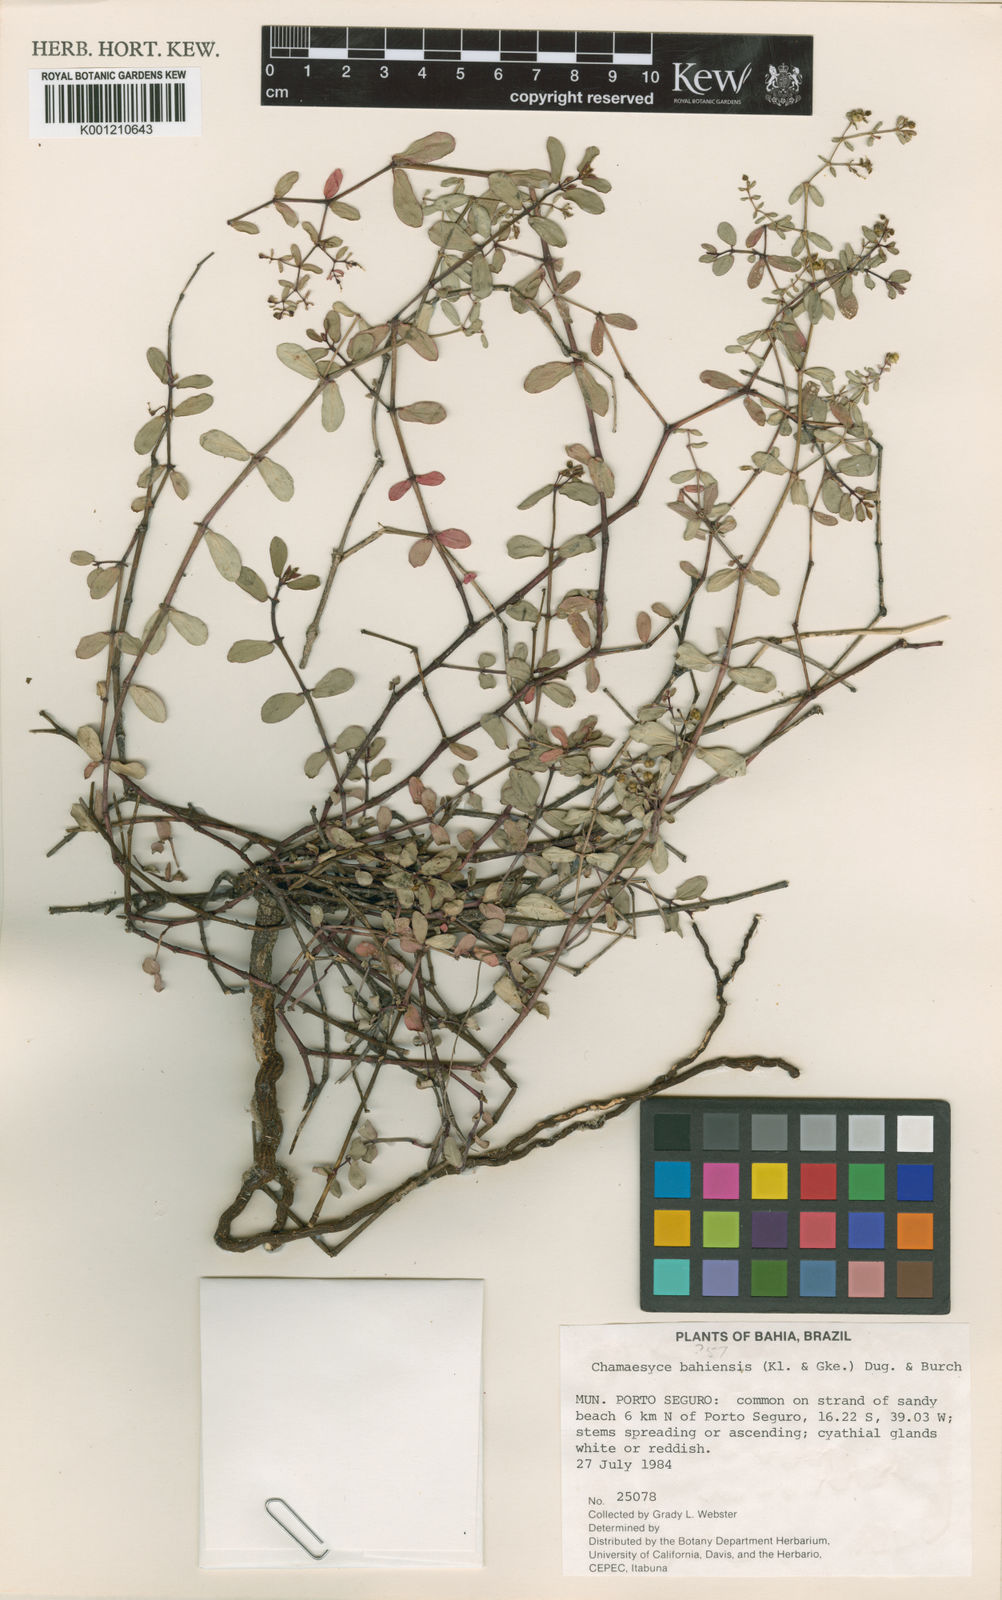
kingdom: Plantae
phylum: Tracheophyta
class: Magnoliopsida
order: Malpighiales
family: Euphorbiaceae
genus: Euphorbia
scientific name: Euphorbia bahiensis
